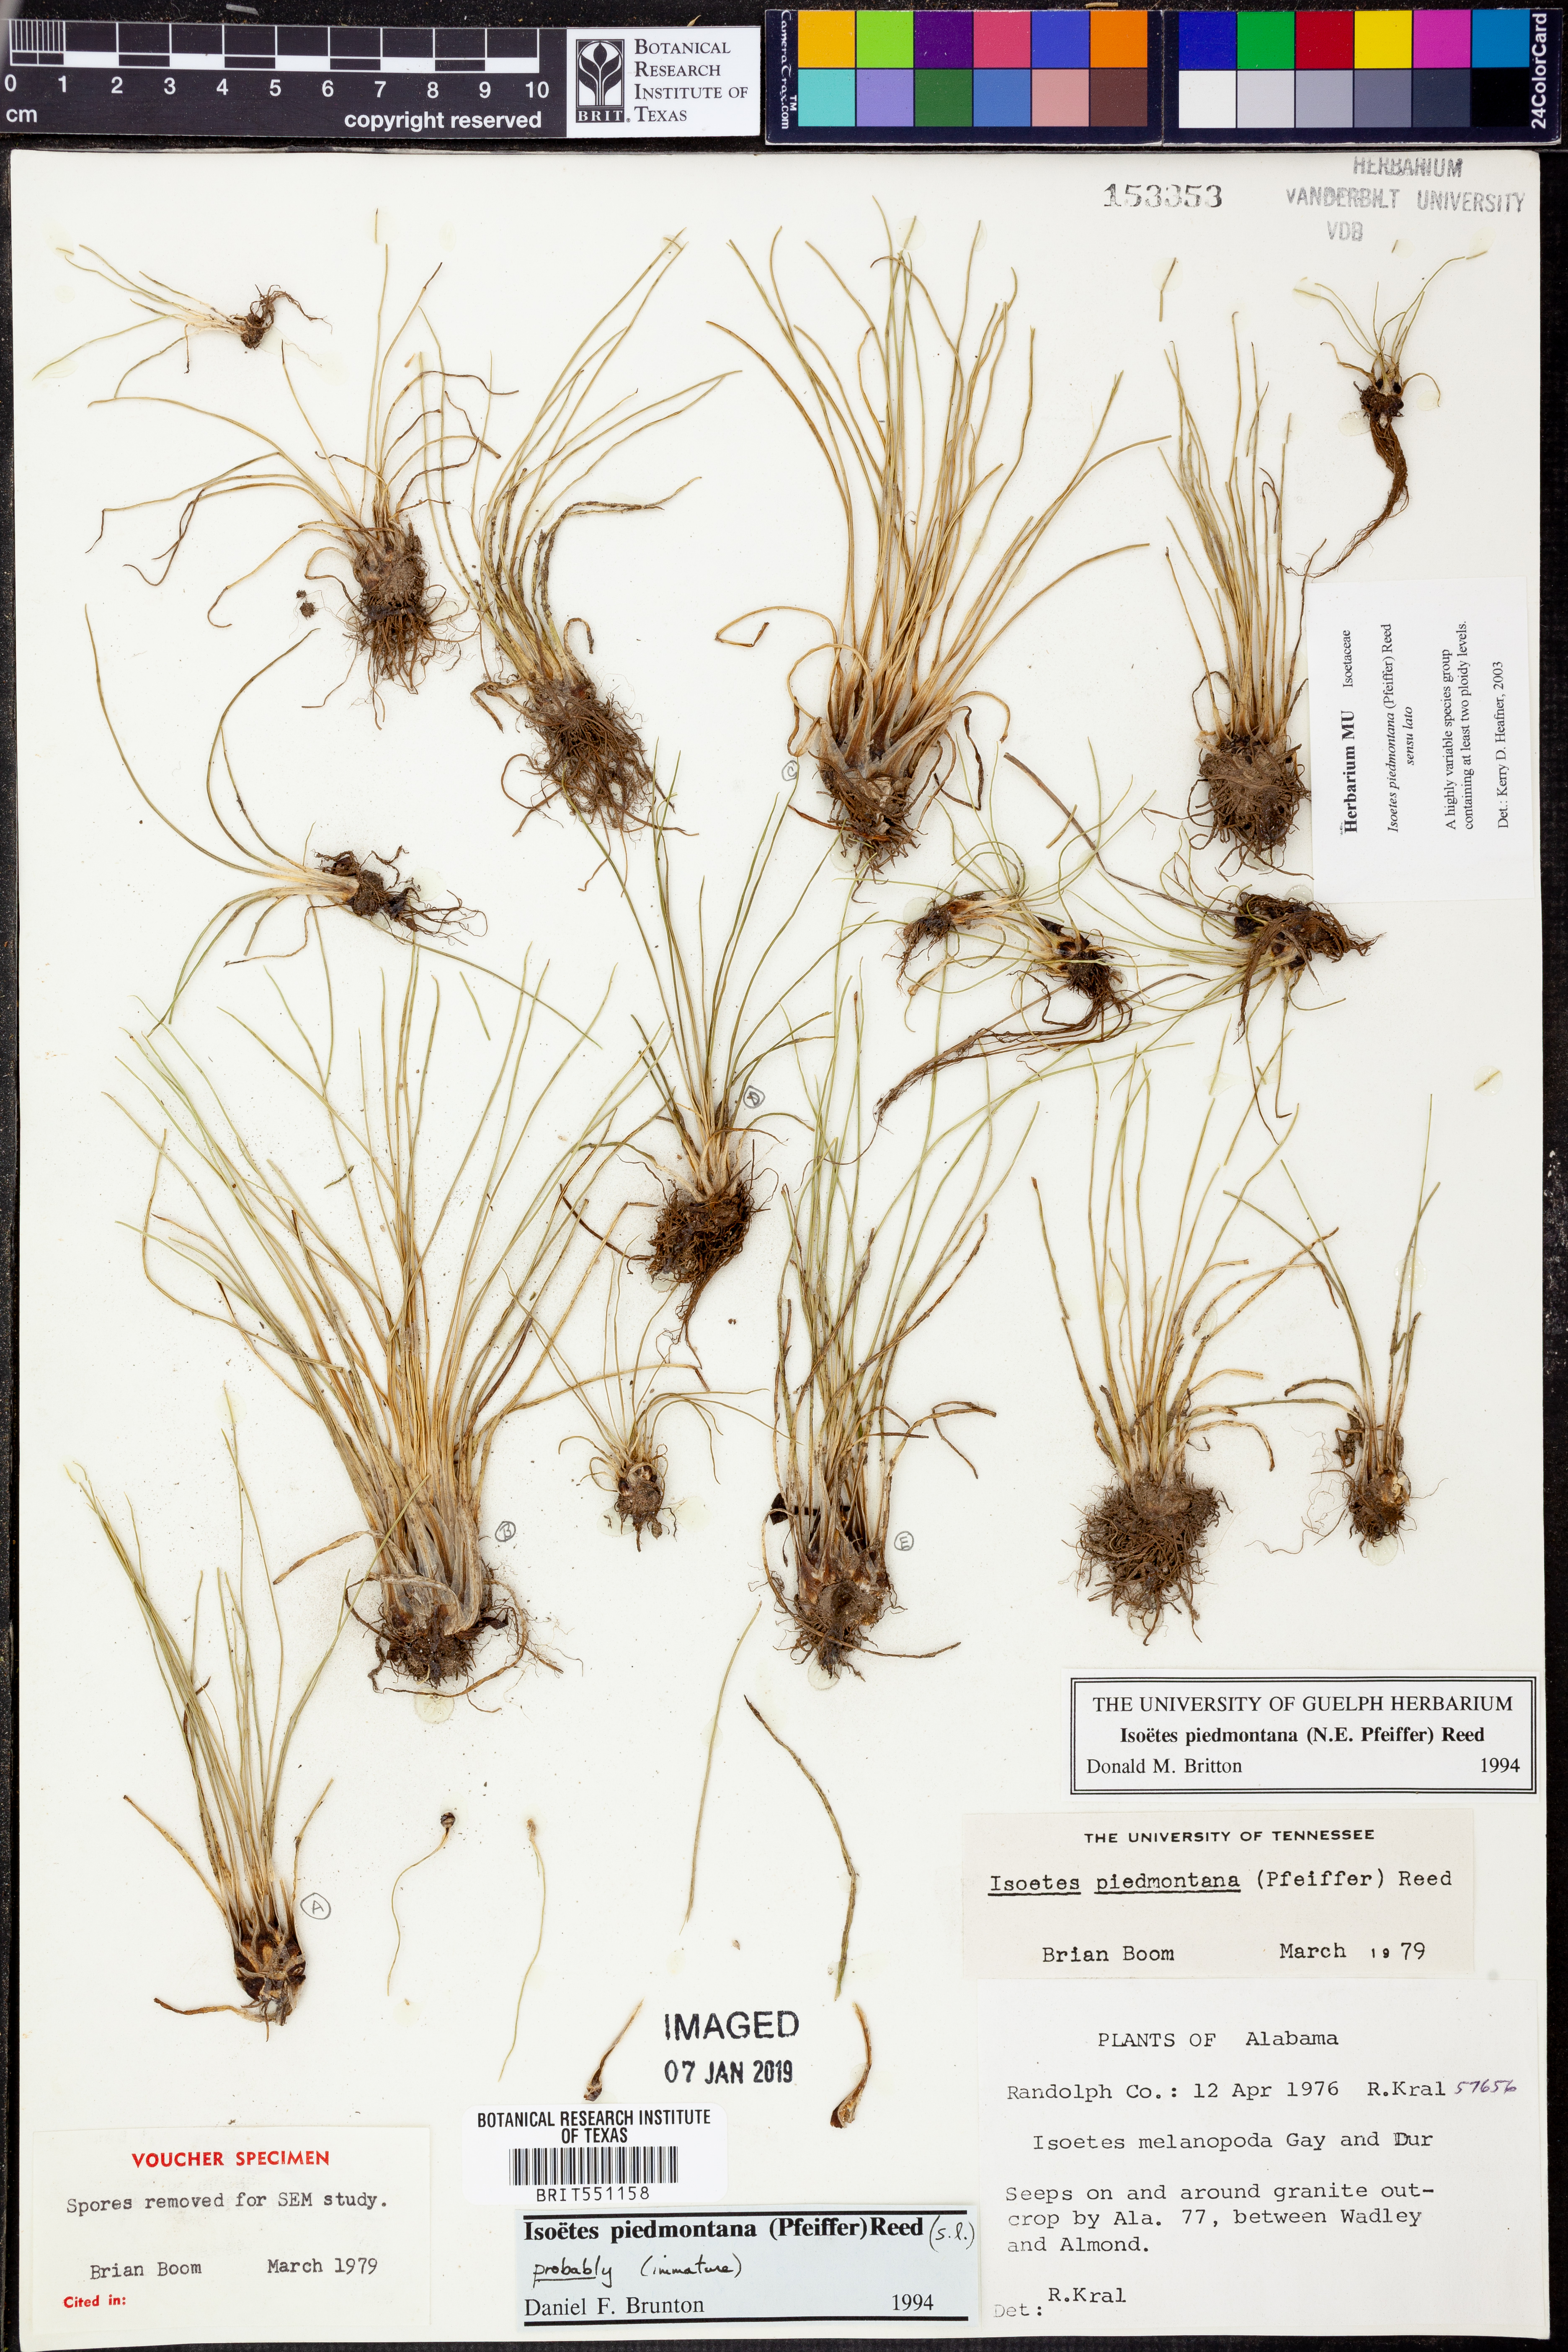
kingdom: Plantae
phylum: Tracheophyta
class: Lycopodiopsida
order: Isoetales
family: Isoetaceae
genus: Isoetes
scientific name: Isoetes virginica
